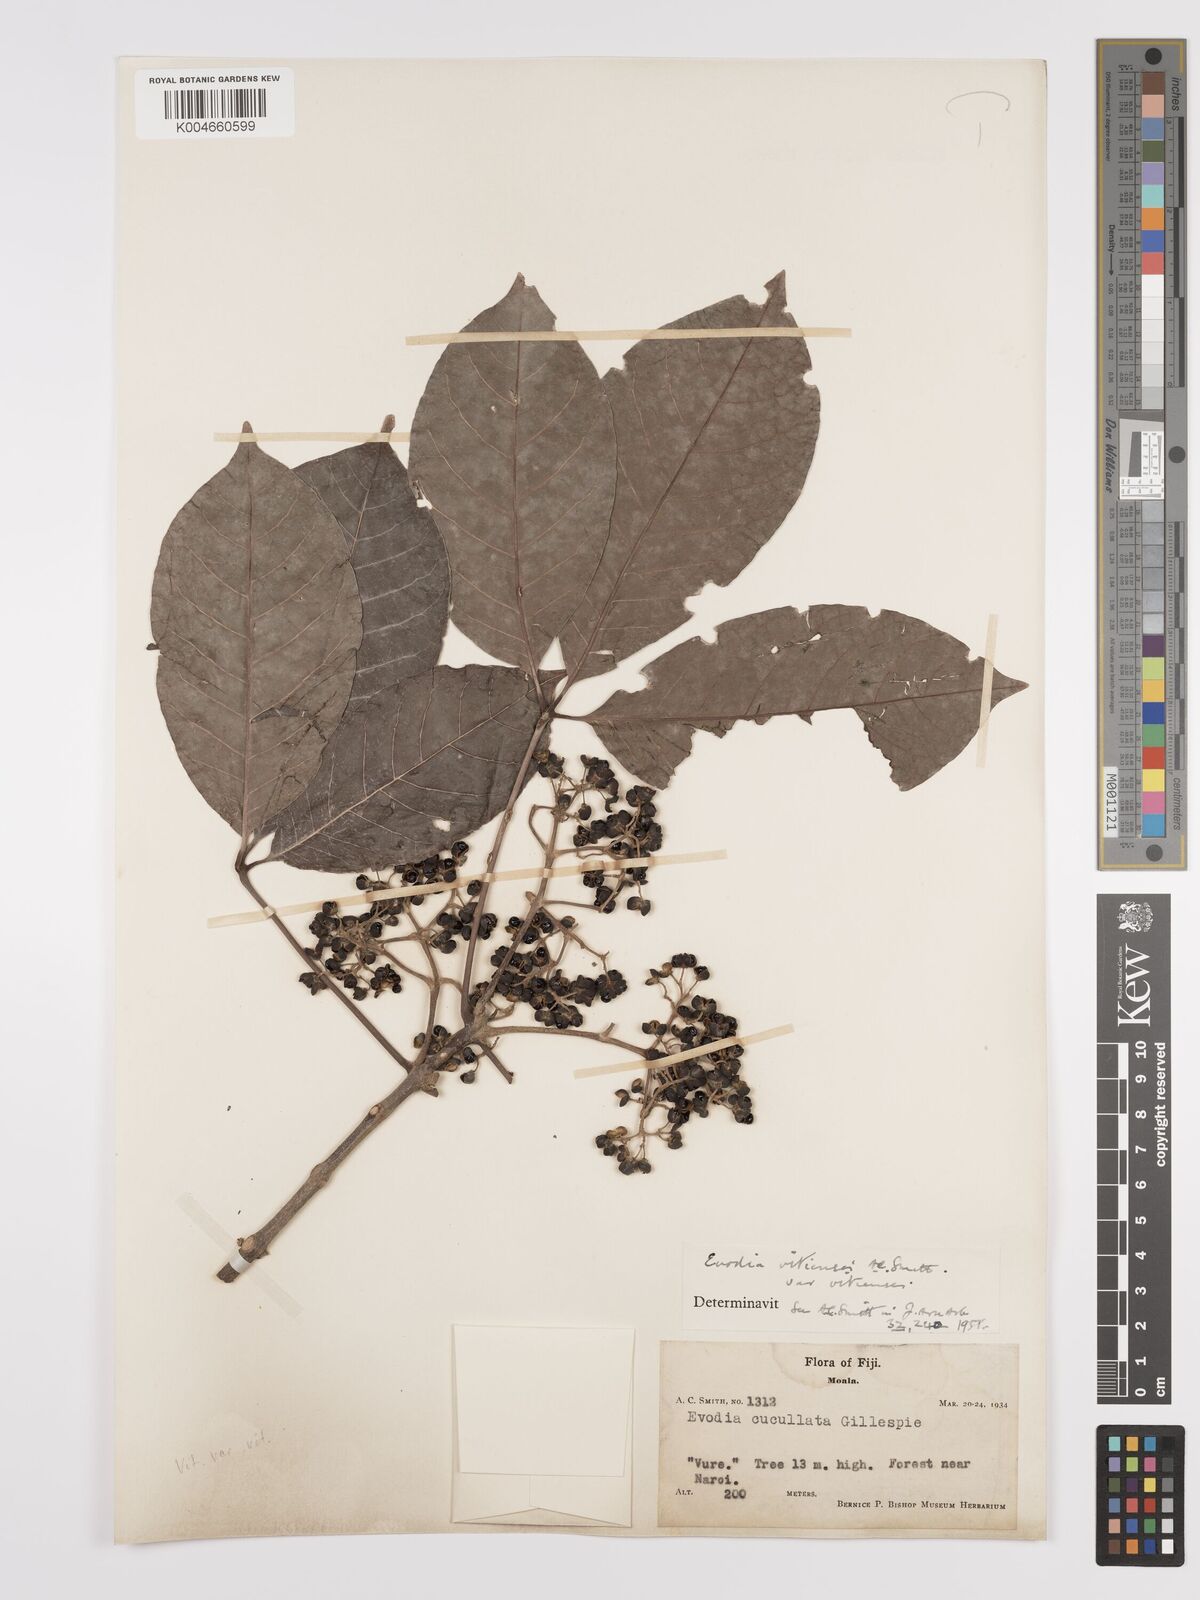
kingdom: Plantae
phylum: Tracheophyta
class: Magnoliopsida
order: Sapindales
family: Rutaceae
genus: Melicope
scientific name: Melicope cucullata
